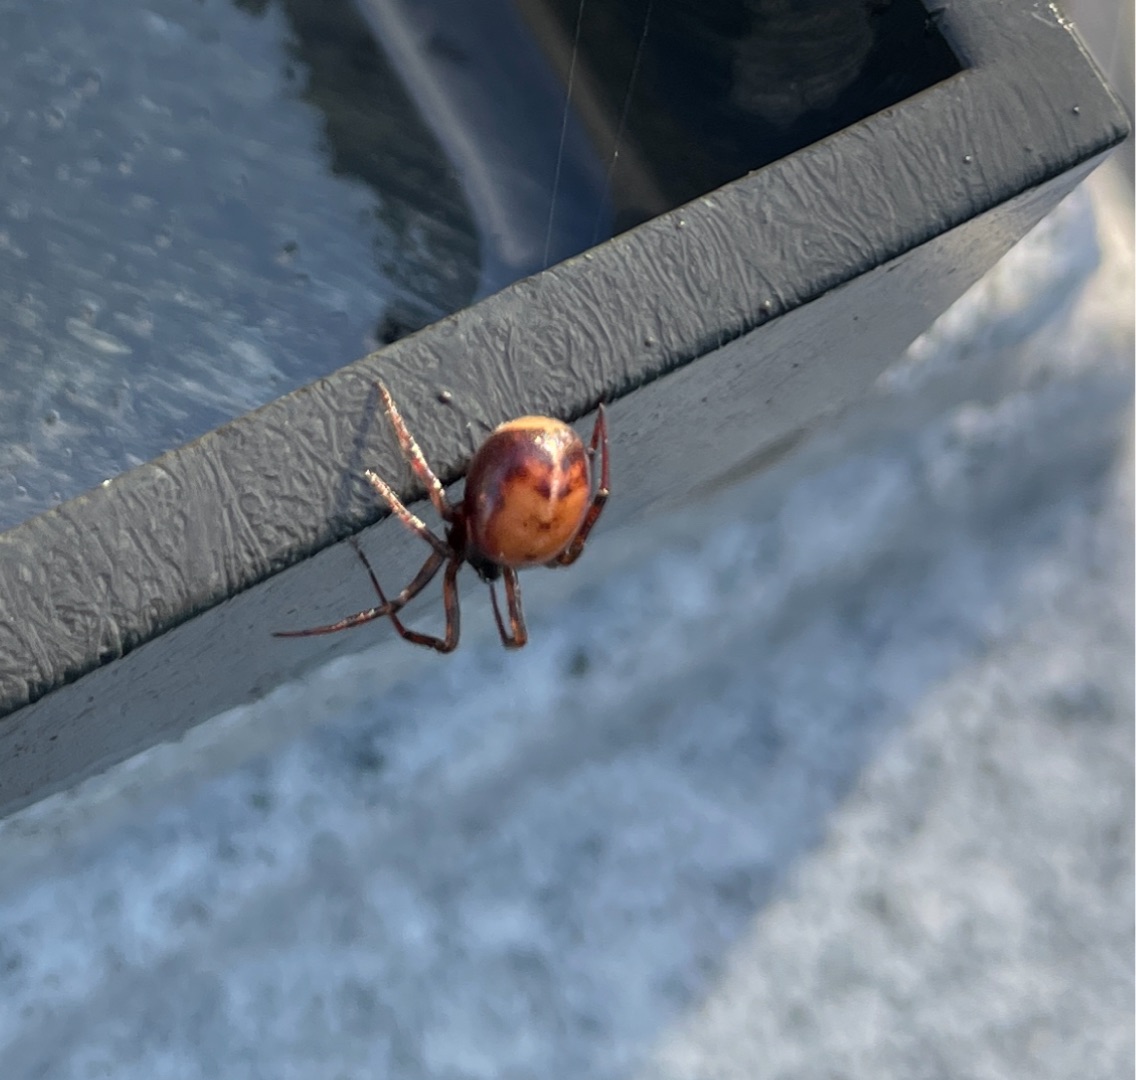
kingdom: Animalia
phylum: Arthropoda
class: Arachnida
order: Araneae
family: Theridiidae
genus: Steatoda
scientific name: Steatoda bipunctata
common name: Fedtedderkop
